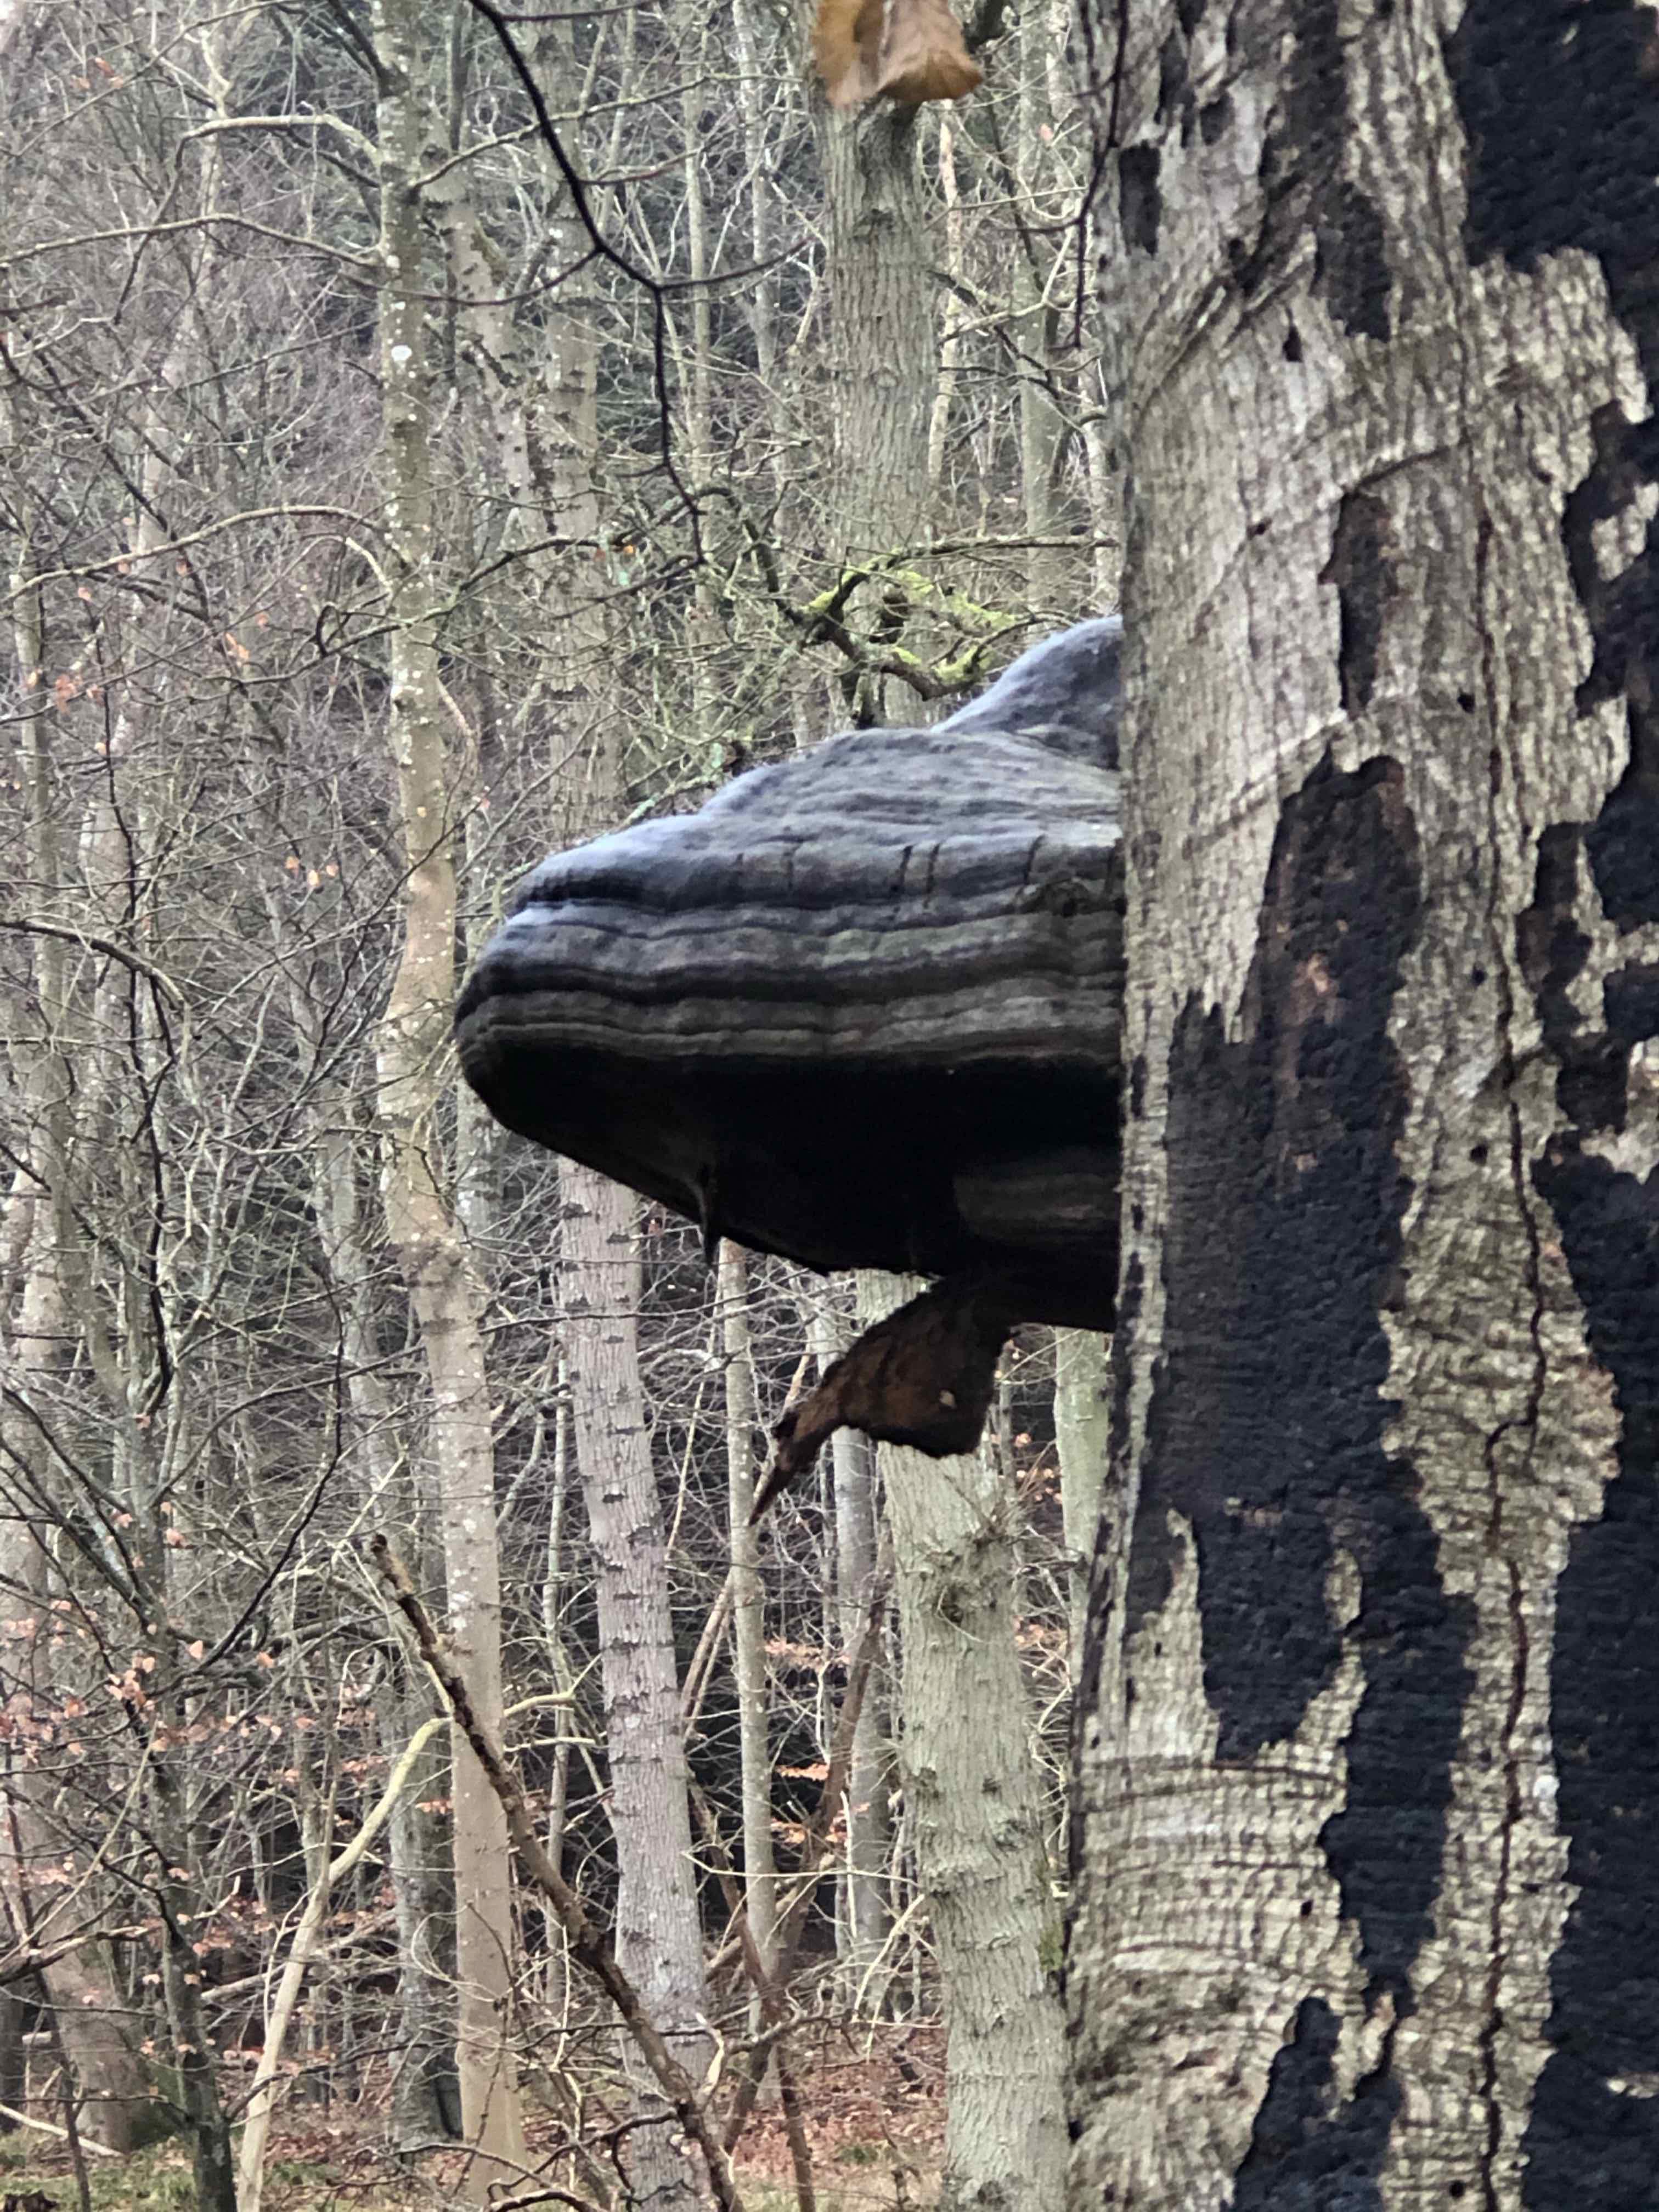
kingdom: Fungi
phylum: Basidiomycota
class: Agaricomycetes
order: Polyporales
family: Polyporaceae
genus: Fomes
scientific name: Fomes fomentarius
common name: tøndersvamp
